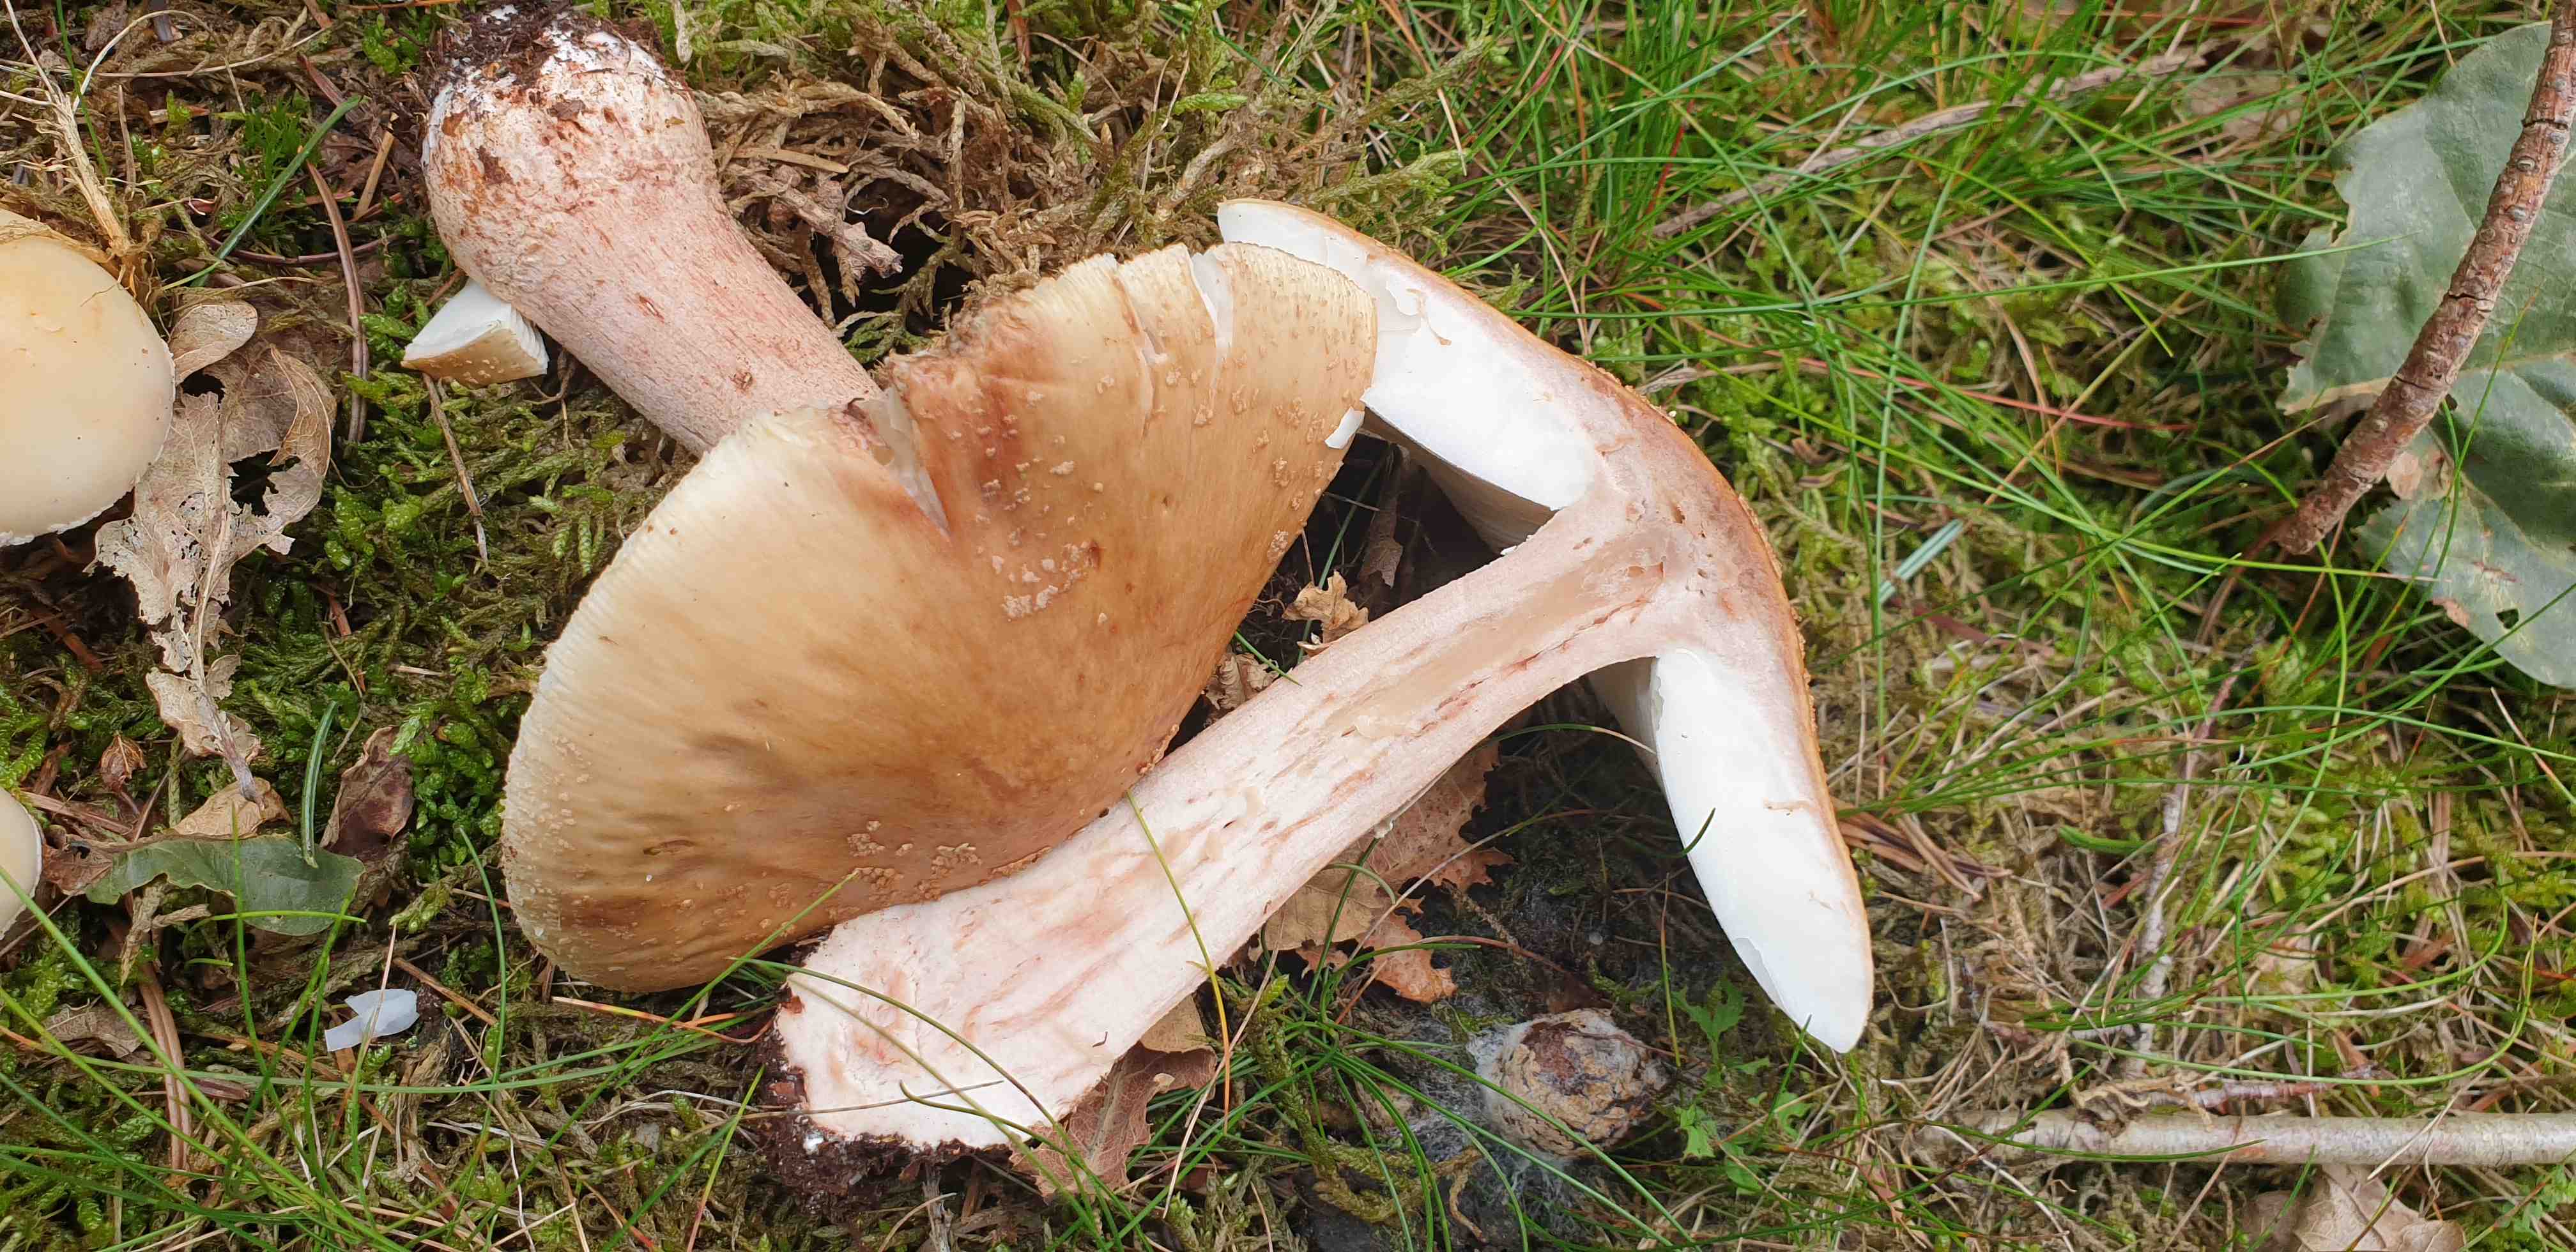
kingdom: Fungi
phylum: Basidiomycota
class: Agaricomycetes
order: Agaricales
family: Amanitaceae
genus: Amanita
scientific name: Amanita rubescens
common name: rødmende fluesvamp
